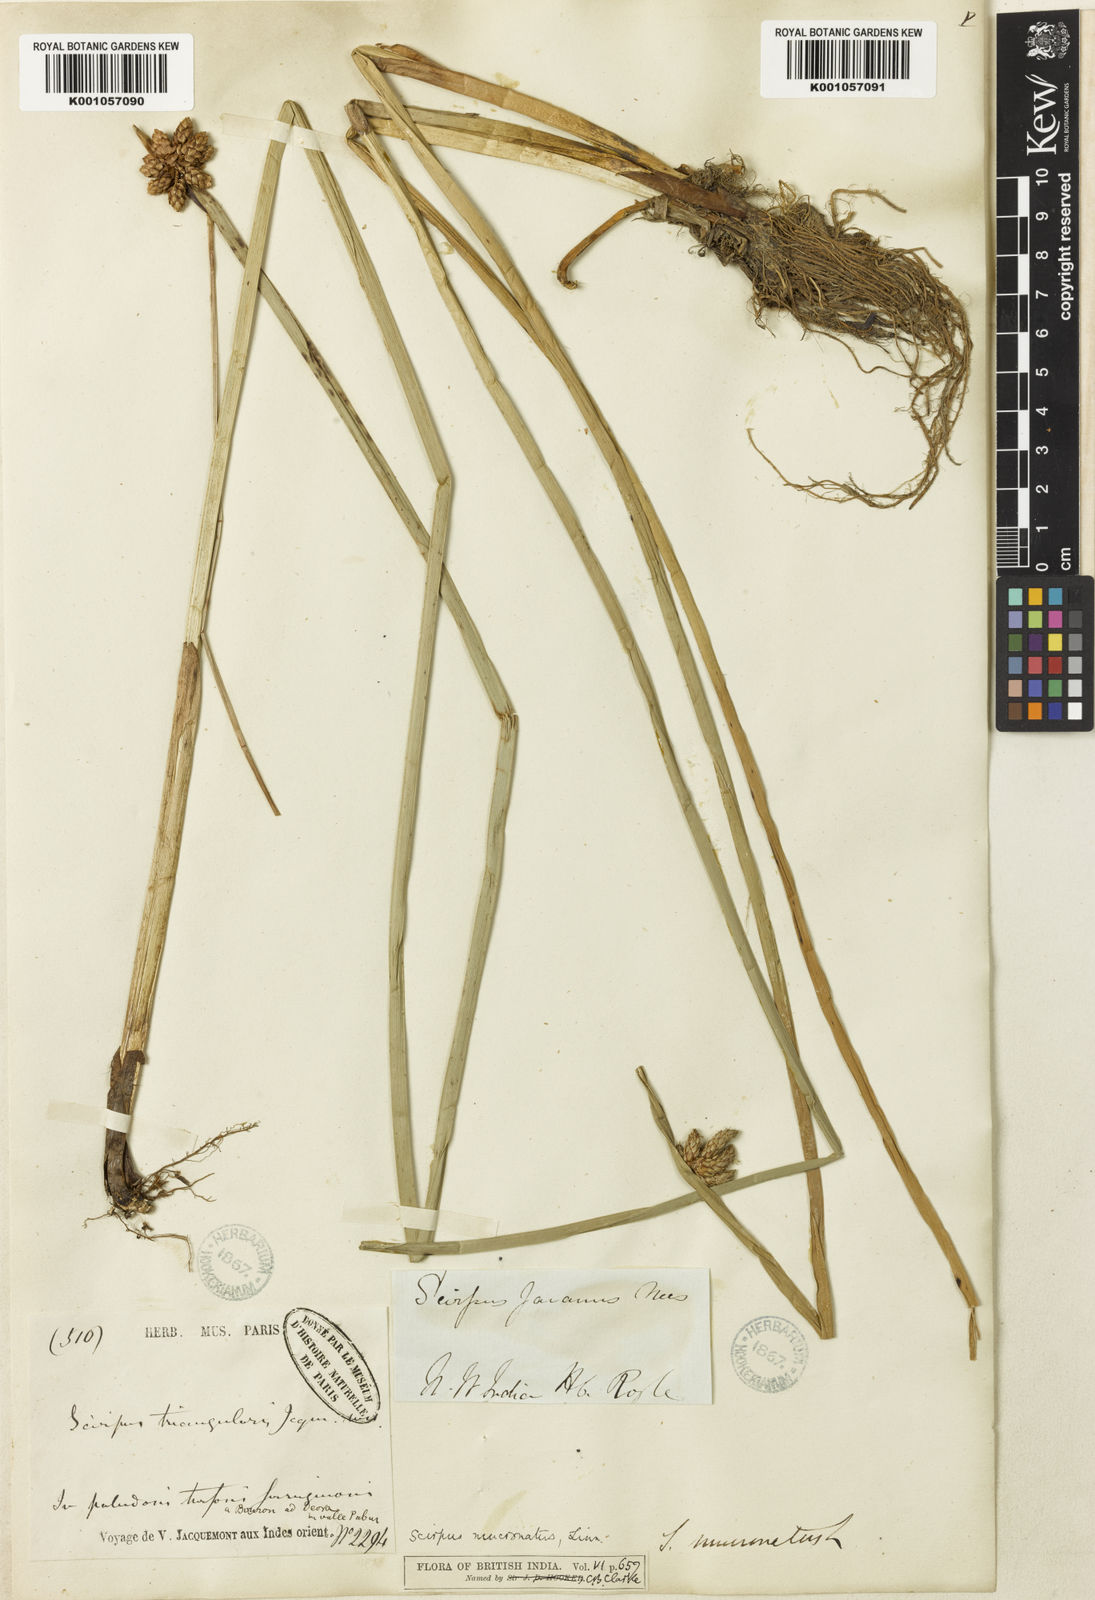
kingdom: Plantae
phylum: Tracheophyta
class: Liliopsida
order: Poales
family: Cyperaceae
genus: Schoenoplectiella
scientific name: Schoenoplectiella mucronata
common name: Bog bulrush
